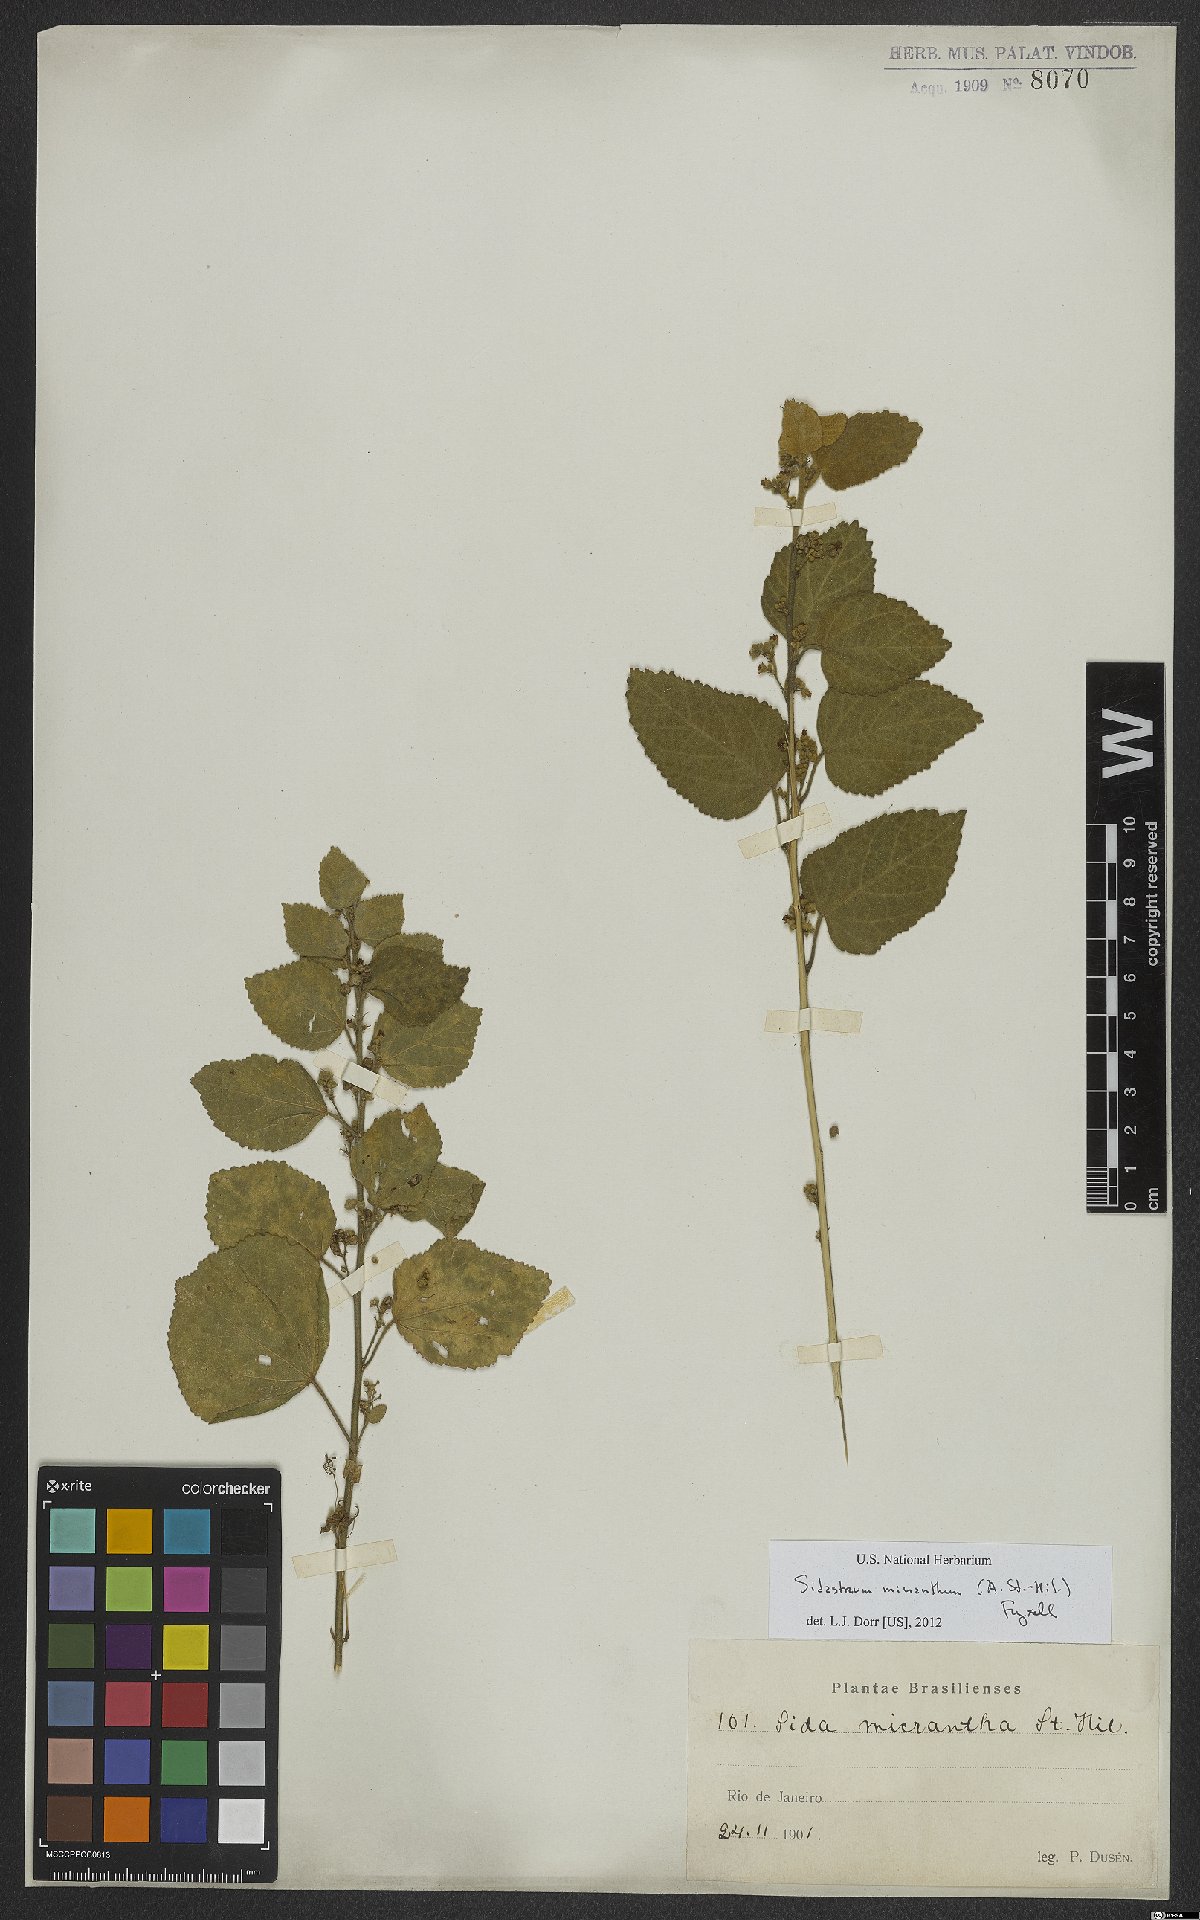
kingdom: Plantae
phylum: Tracheophyta
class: Magnoliopsida
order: Malvales
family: Malvaceae
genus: Sidastrum
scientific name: Sidastrum micranthum
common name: Dainty sandmallow
